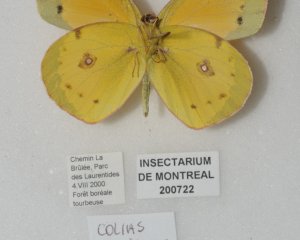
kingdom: Animalia
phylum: Arthropoda
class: Insecta
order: Lepidoptera
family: Pieridae
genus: Colias
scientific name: Colias eurytheme
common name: Orange Sulphur
